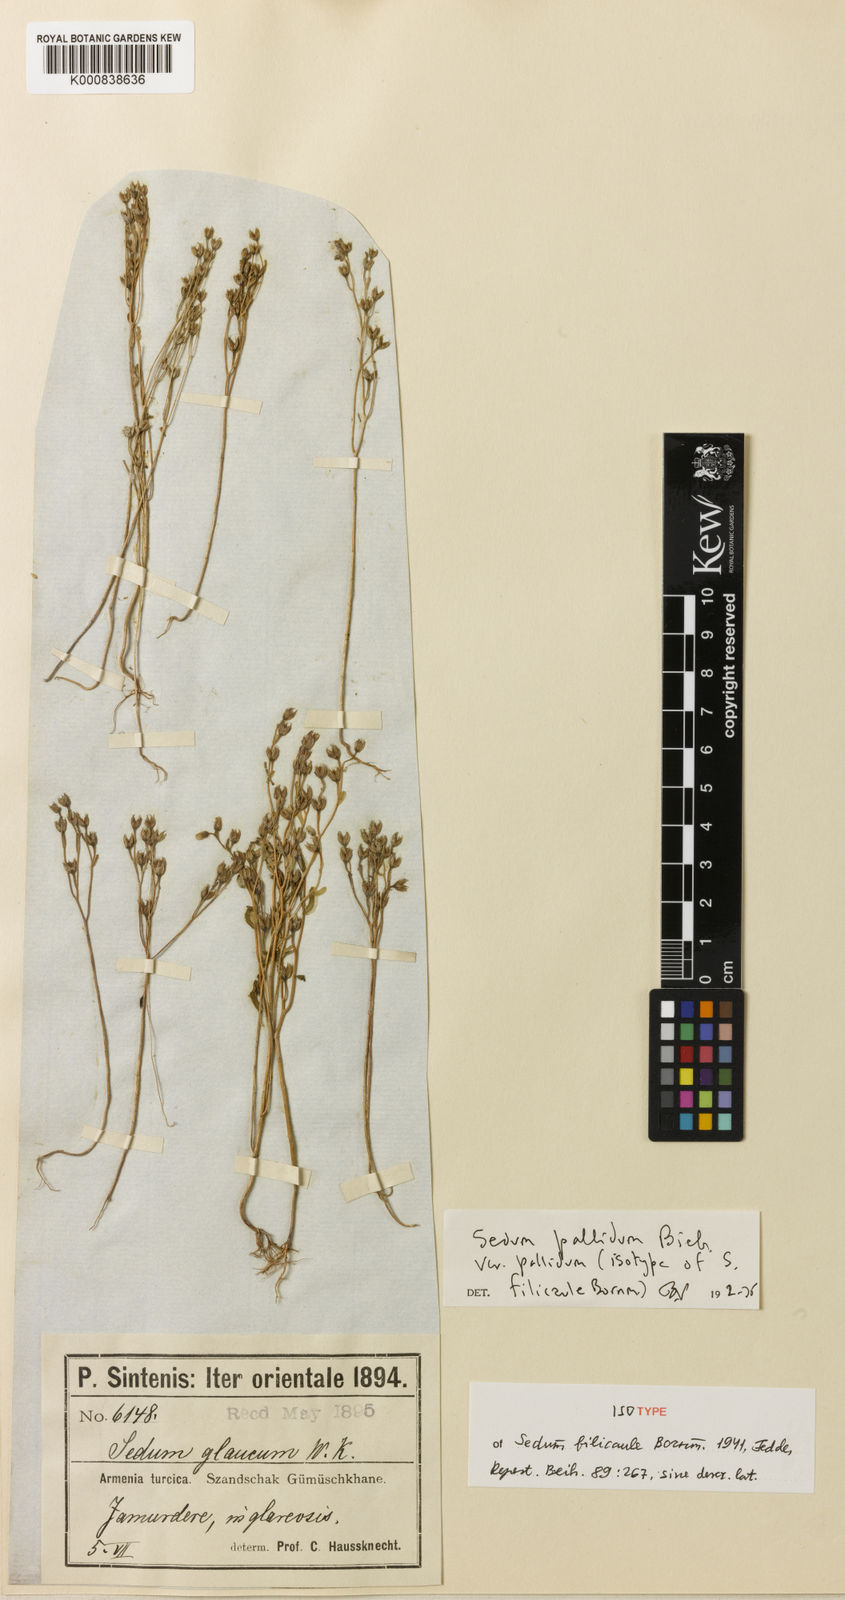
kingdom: Plantae
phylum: Tracheophyta
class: Magnoliopsida
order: Saxifragales
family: Crassulaceae
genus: Sedum
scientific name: Sedum pallidum
